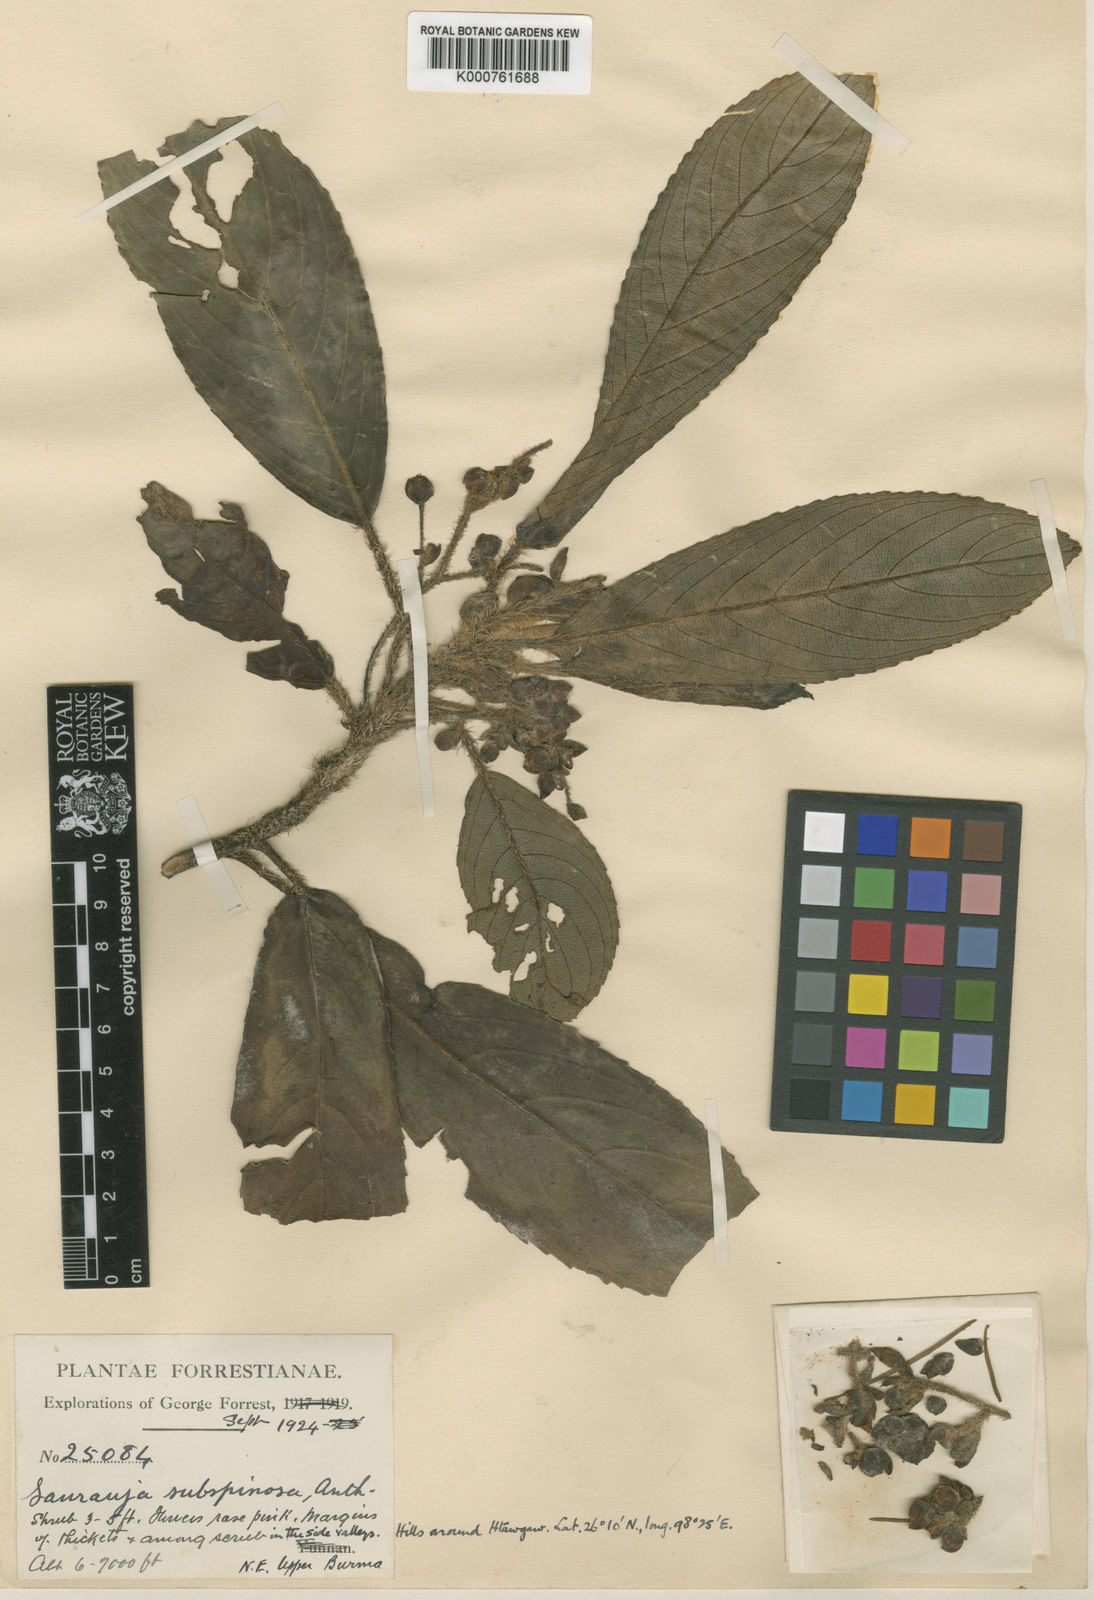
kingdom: Plantae
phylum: Tracheophyta
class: Magnoliopsida
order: Ericales
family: Actinidiaceae
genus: Saurauia
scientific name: Saurauia subspinosa
